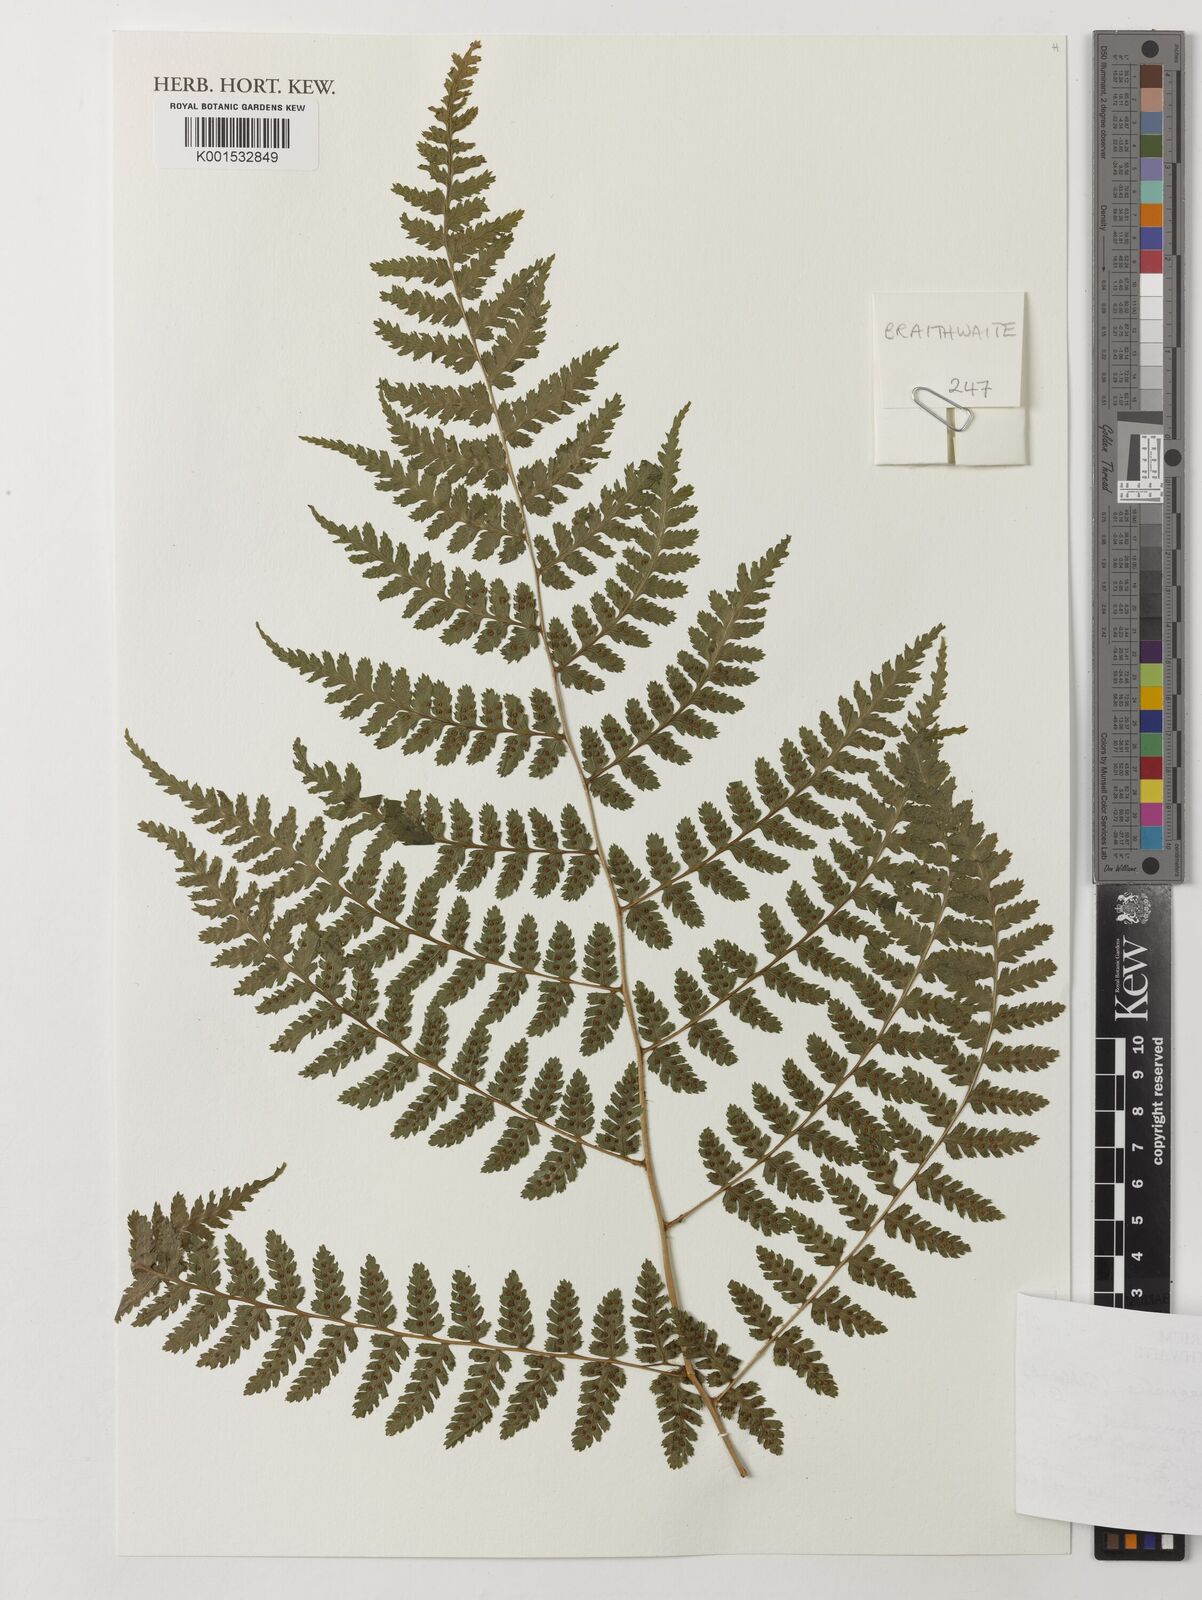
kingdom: Plantae
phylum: Tracheophyta
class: Polypodiopsida
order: Polypodiales
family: Dryopteridaceae
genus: Dryopteris
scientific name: Dryopteris inaequalis
